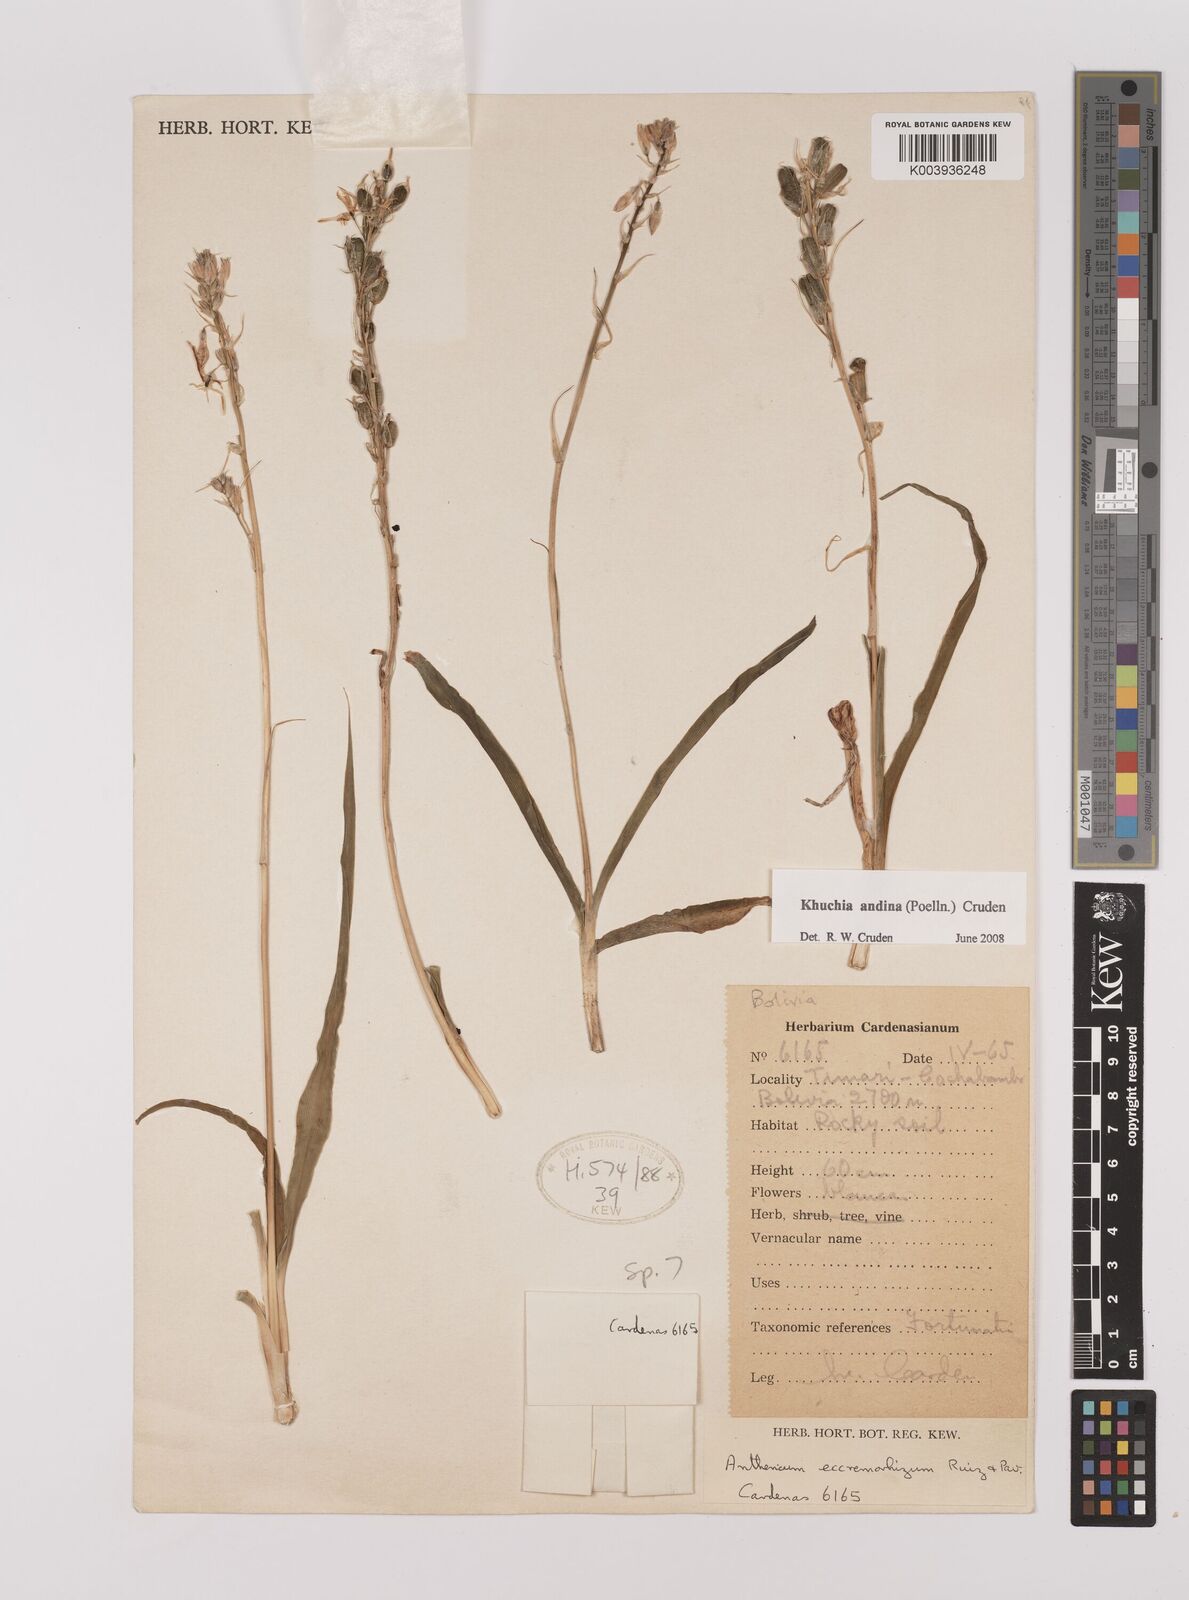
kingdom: Plantae
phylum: Tracheophyta
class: Liliopsida
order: Asparagales
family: Asparagaceae
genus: Echeandia
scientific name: Echeandia
